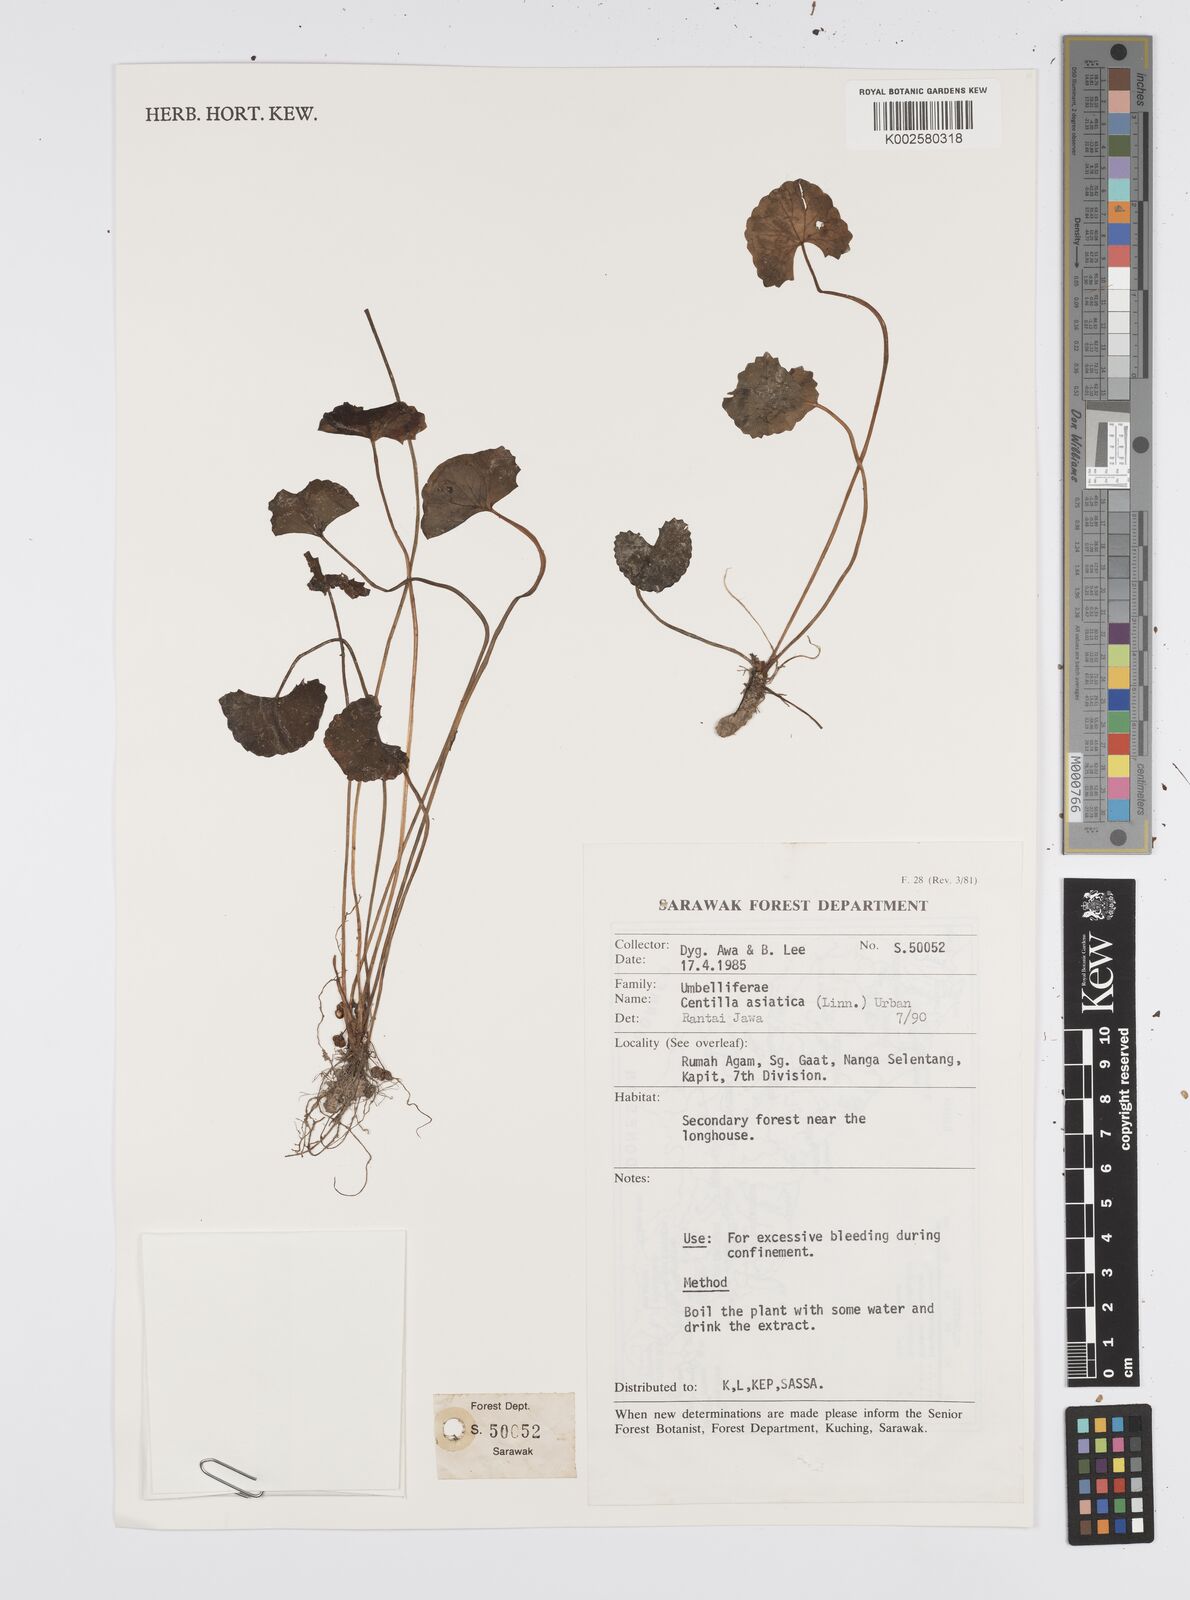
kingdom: Plantae
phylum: Tracheophyta
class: Magnoliopsida
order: Apiales
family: Apiaceae
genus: Centella
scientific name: Centella asiatica
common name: Spadeleaf
